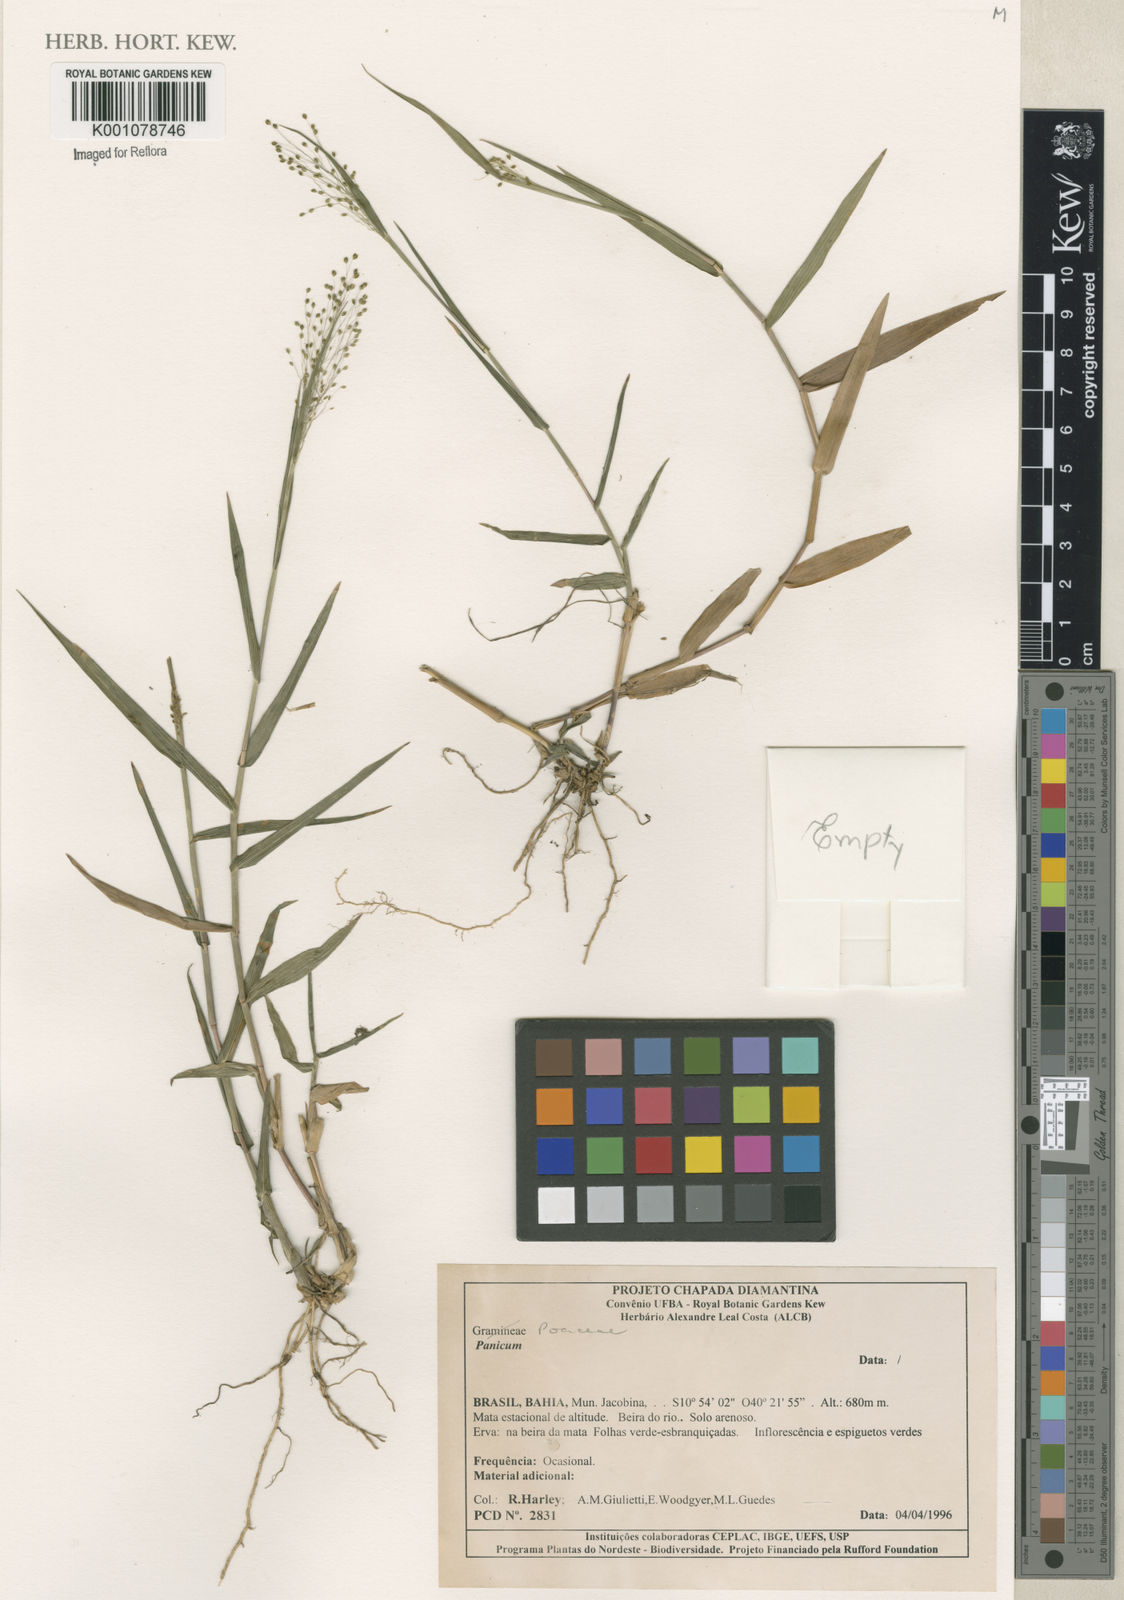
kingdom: Plantae
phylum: Tracheophyta
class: Liliopsida
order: Poales
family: Poaceae
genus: Panicum
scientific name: Panicum
